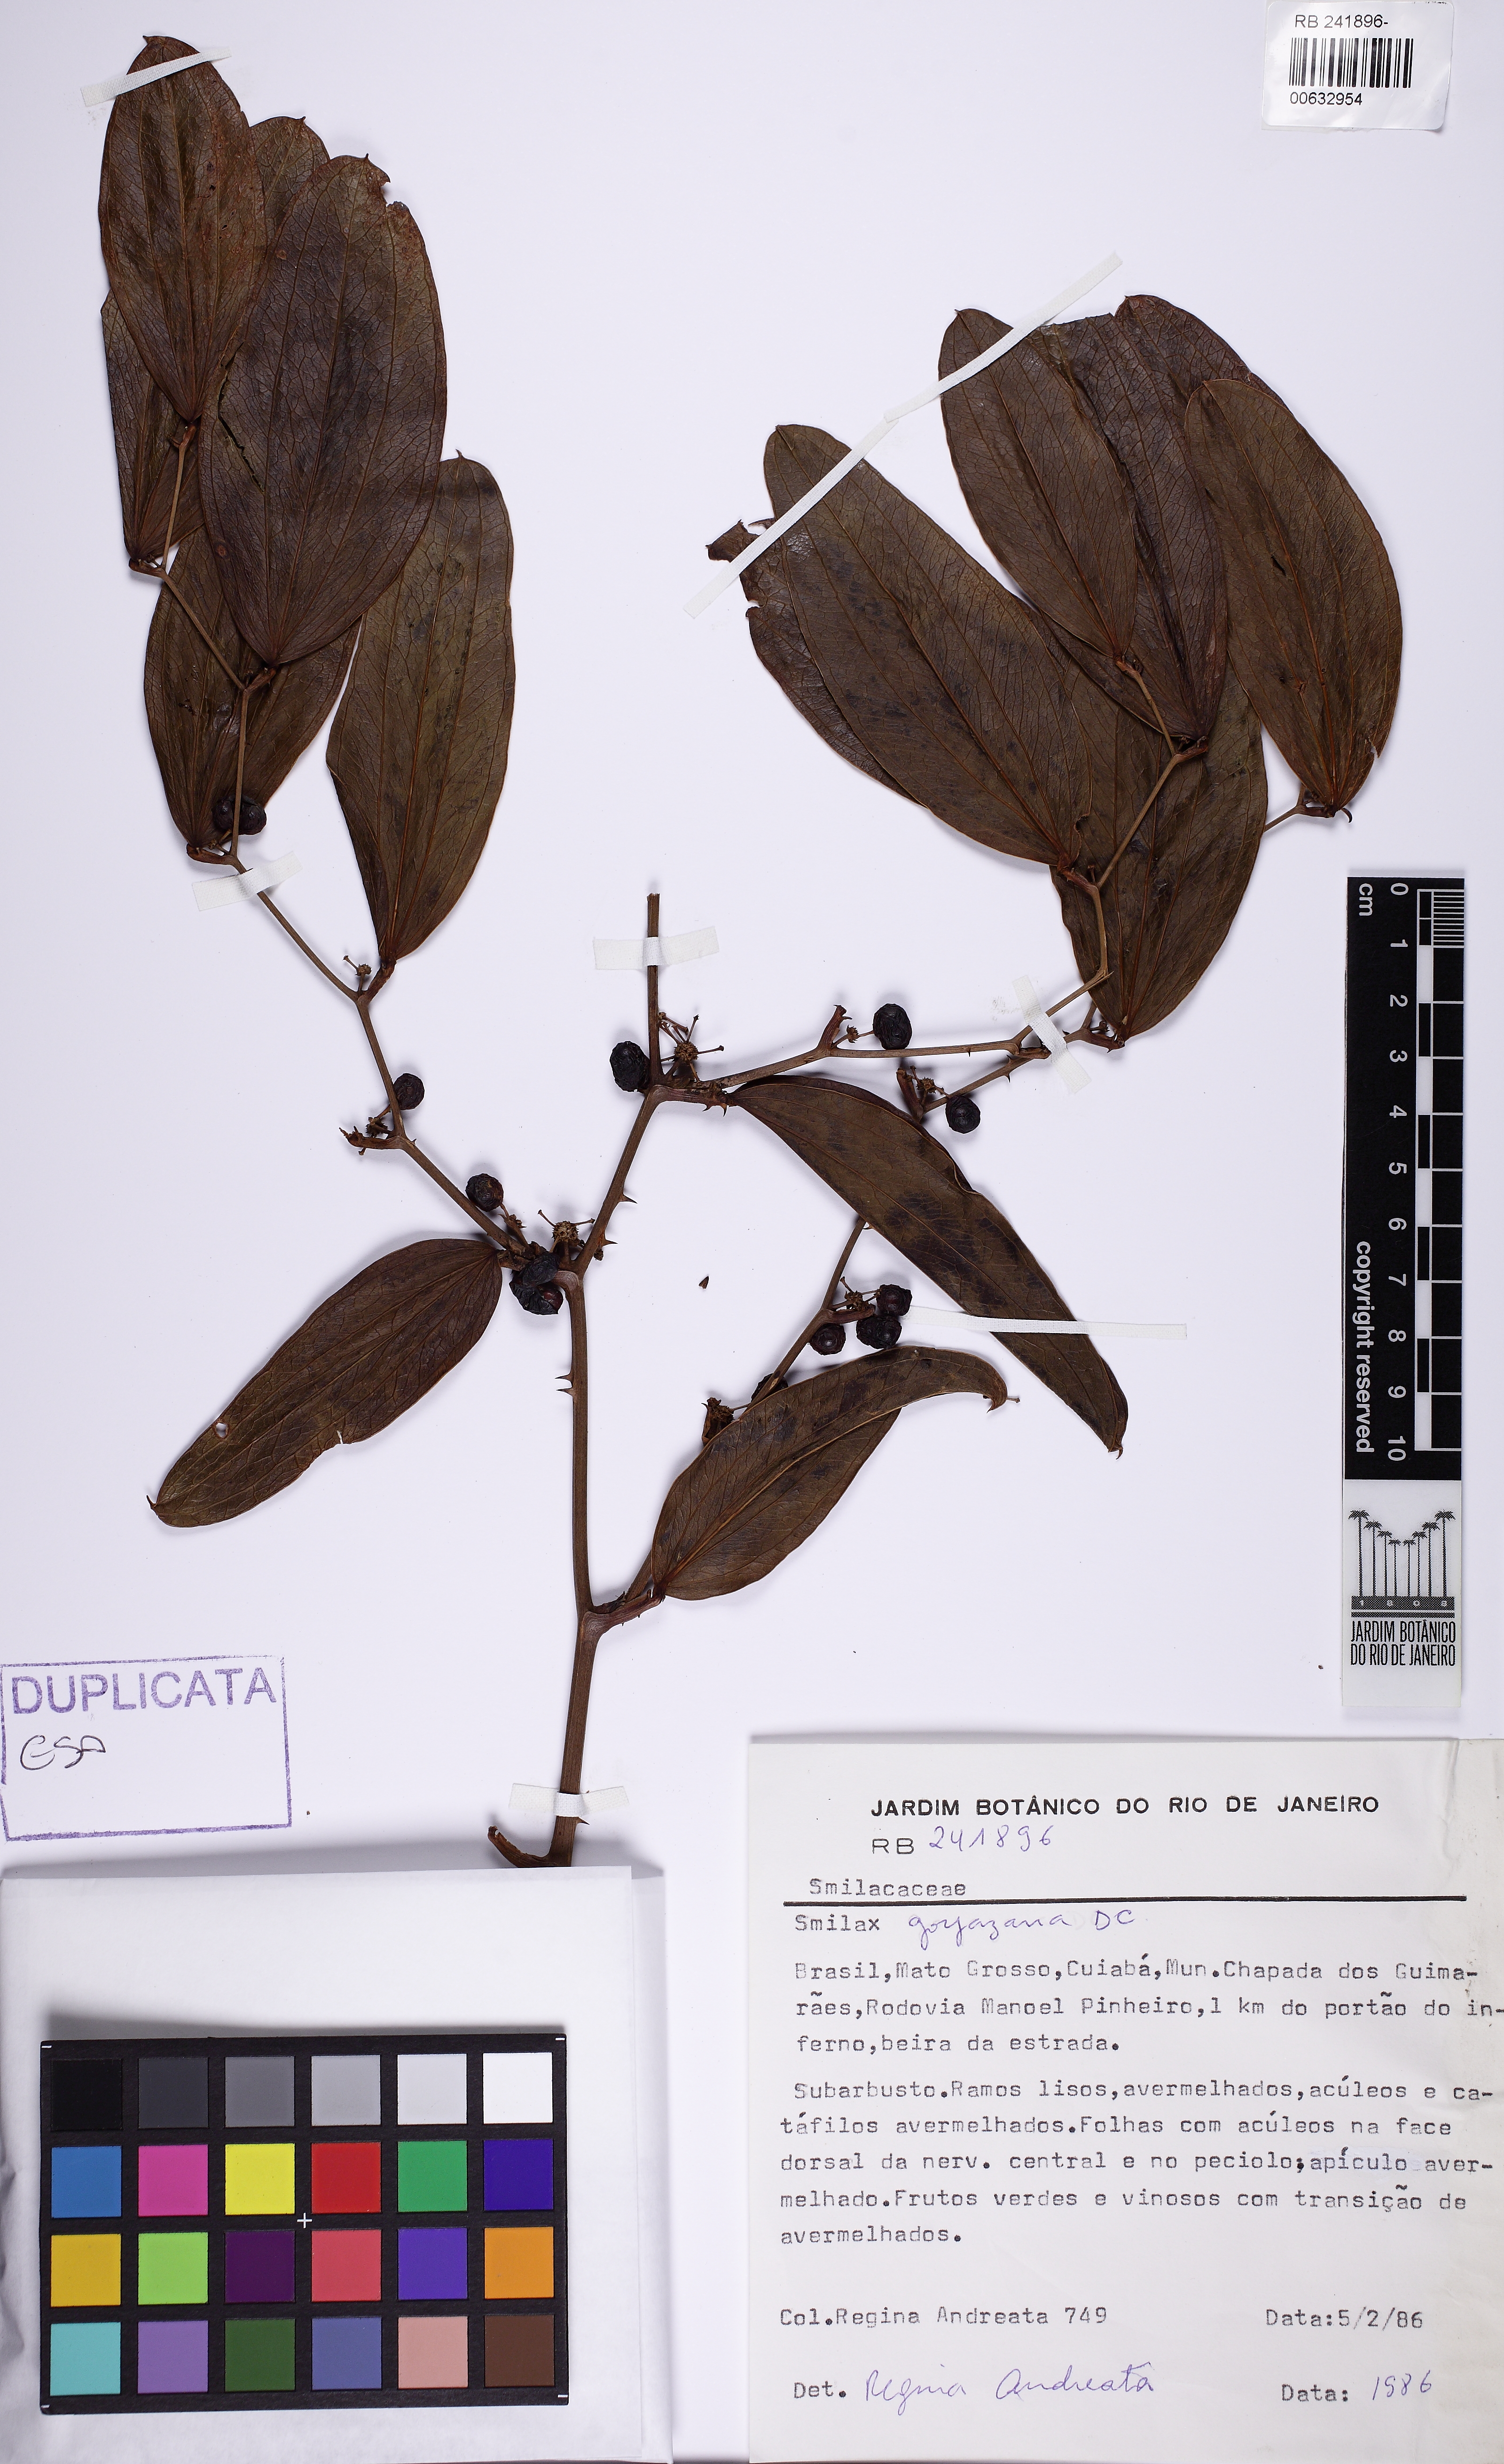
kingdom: Plantae
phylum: Tracheophyta
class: Liliopsida
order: Liliales
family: Smilacaceae
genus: Smilax
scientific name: Smilax goyazana
